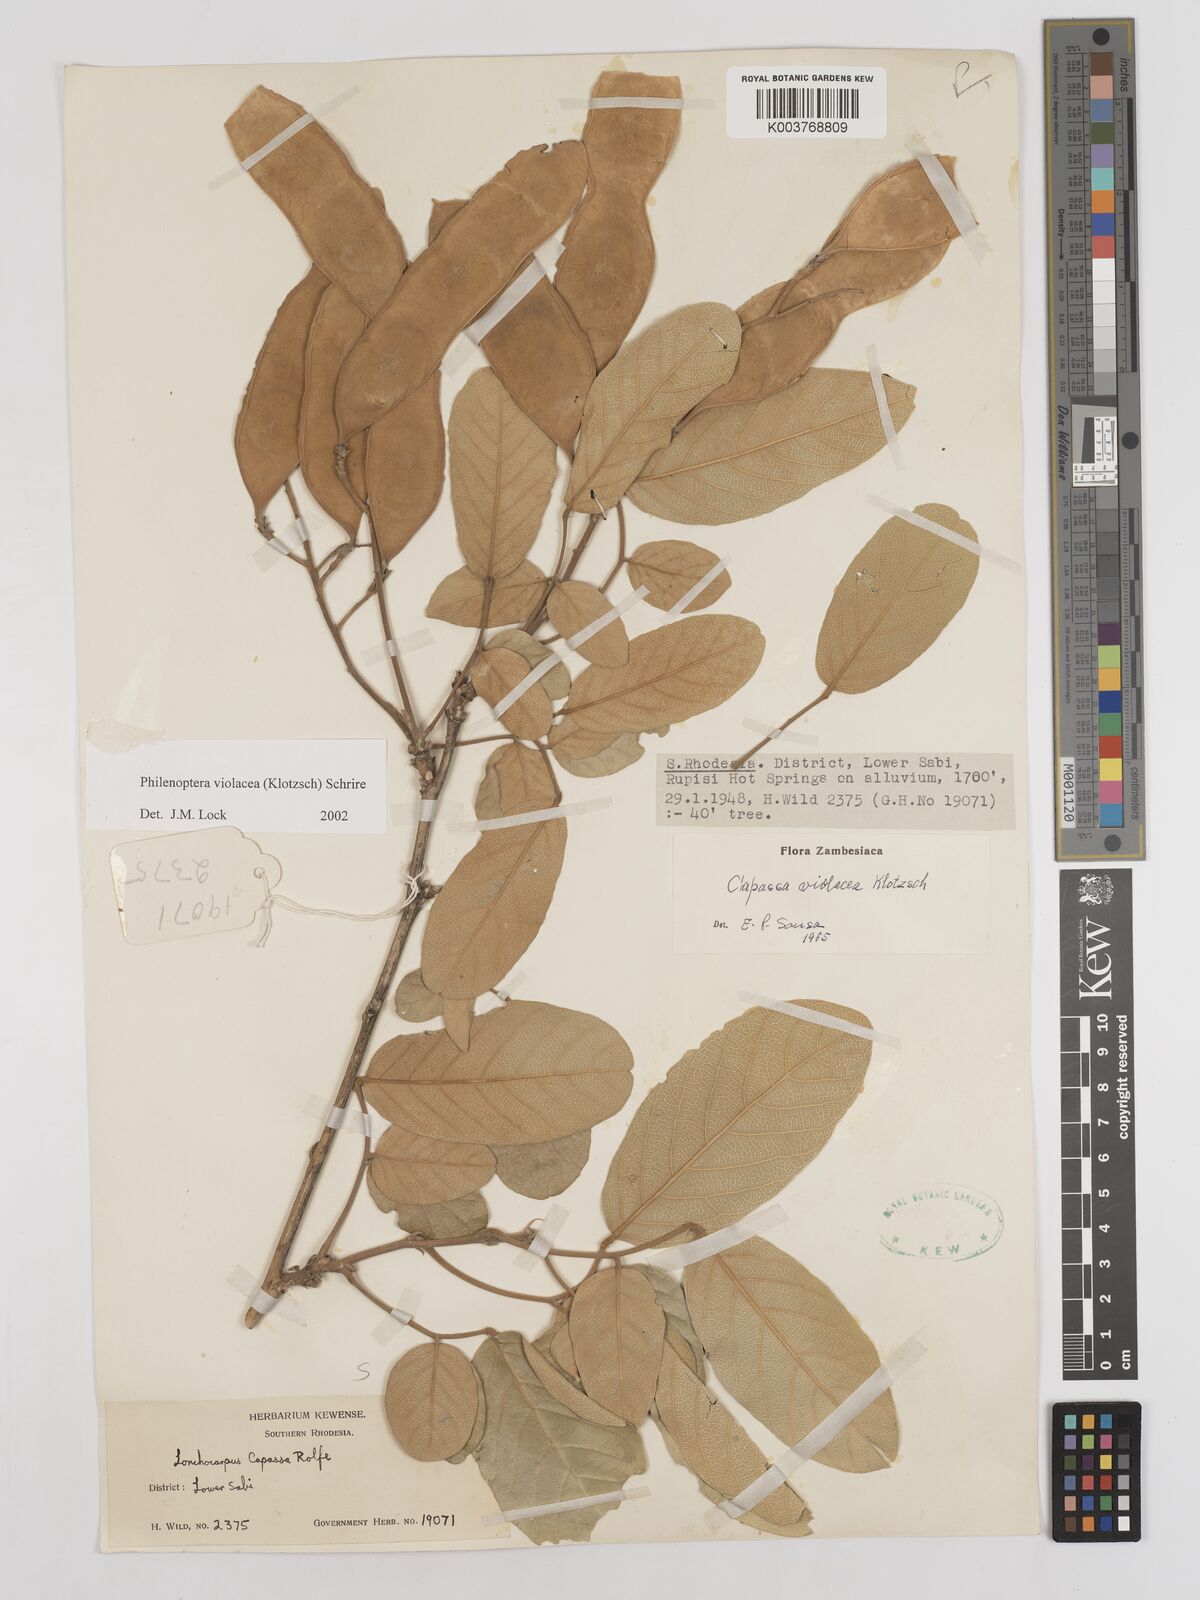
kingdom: Plantae
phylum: Tracheophyta
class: Magnoliopsida
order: Fabales
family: Fabaceae
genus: Philenoptera
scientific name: Philenoptera violacea
